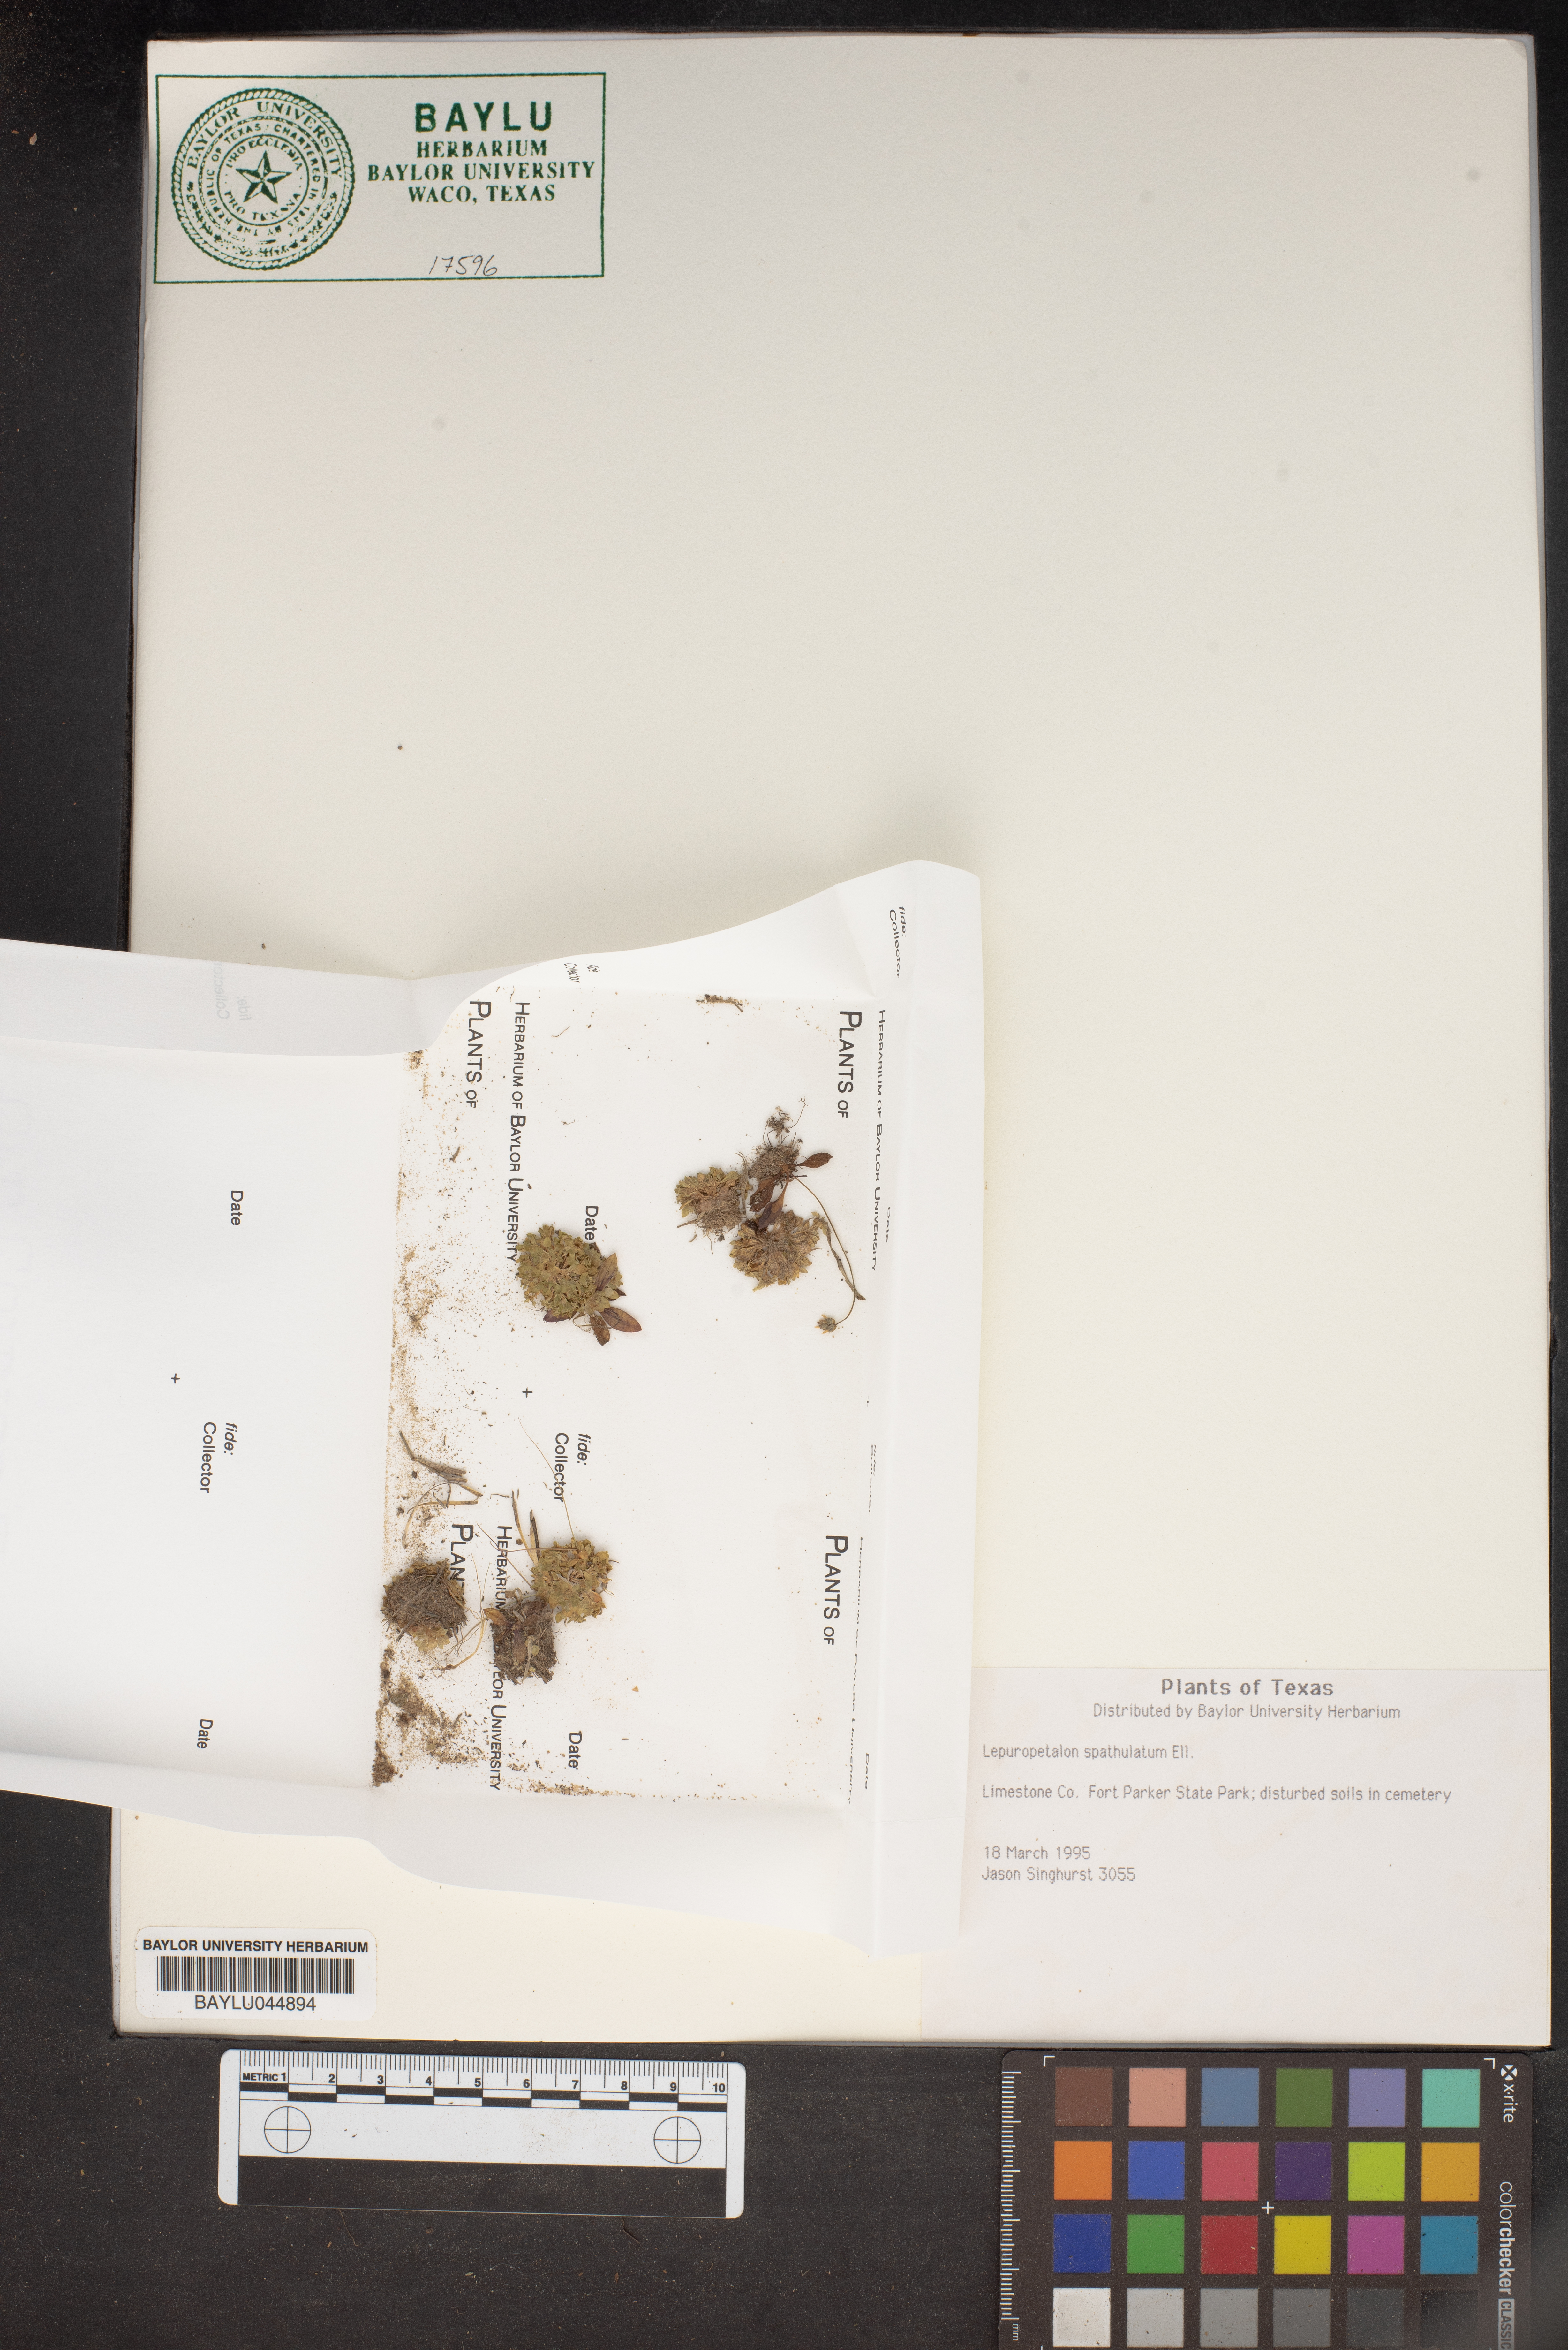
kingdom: Plantae
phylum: Tracheophyta
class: Magnoliopsida
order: Celastrales
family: Parnassiaceae
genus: Lepuropetalon
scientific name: Lepuropetalon spathulatum
